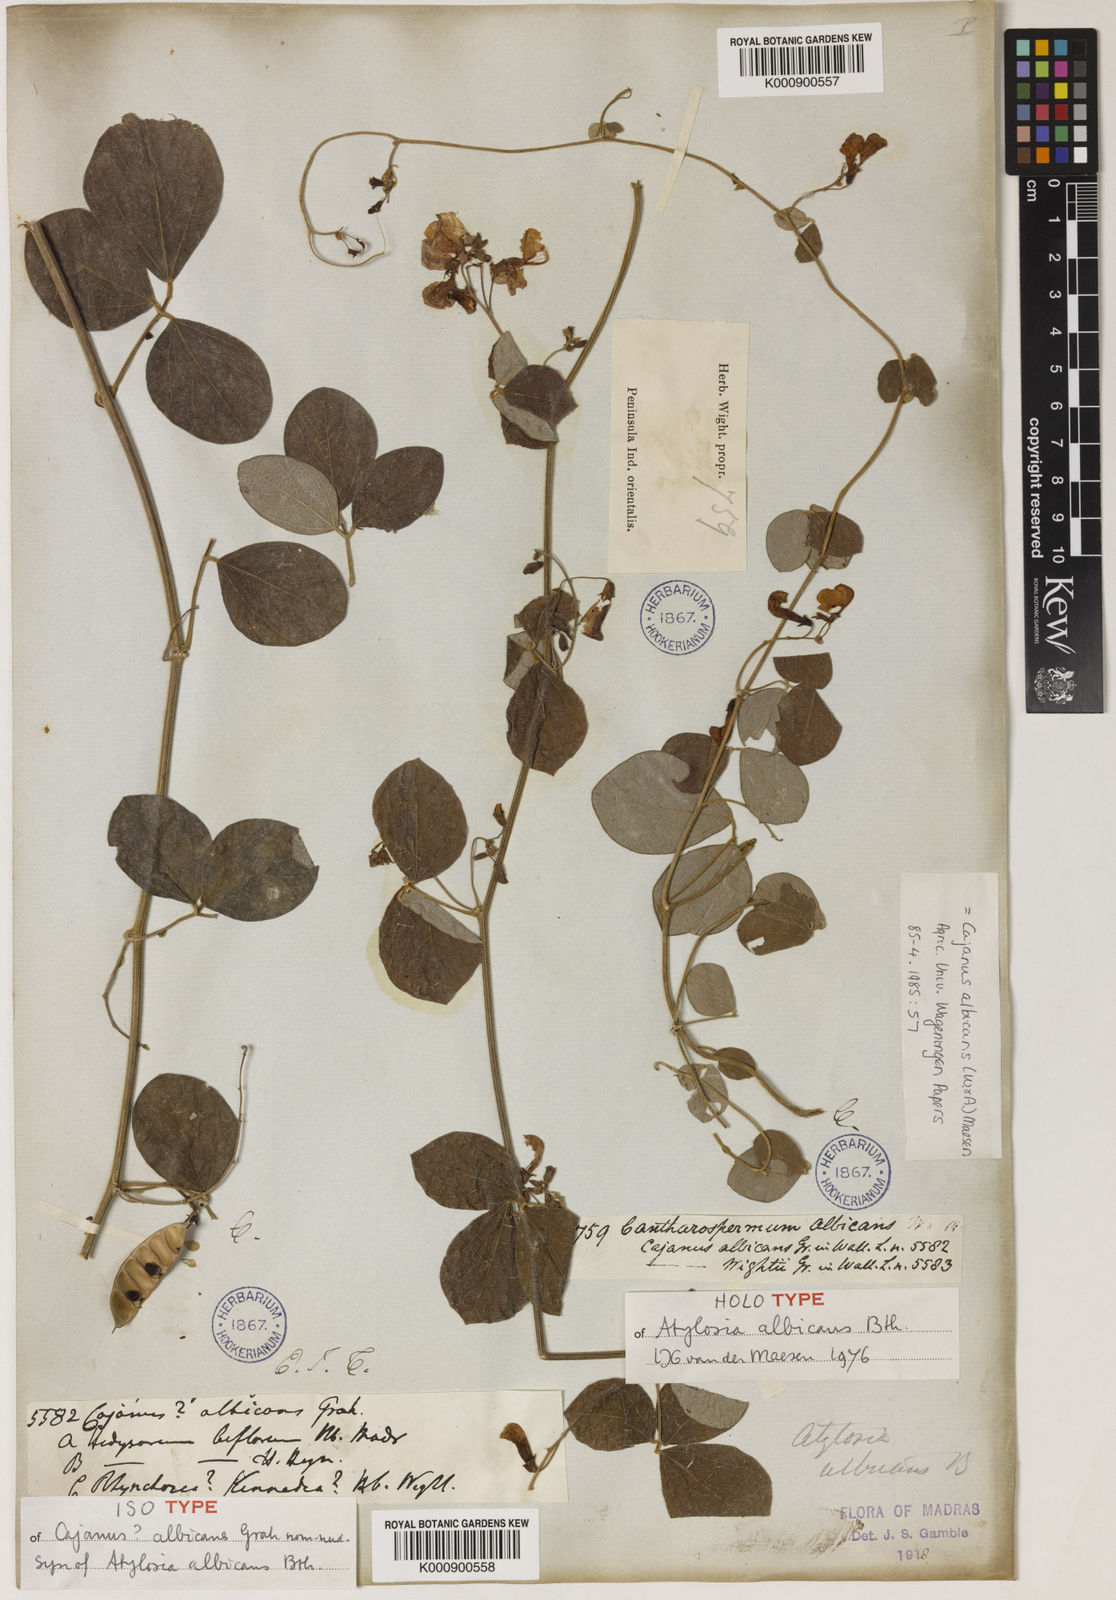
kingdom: Plantae
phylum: Tracheophyta
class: Magnoliopsida
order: Fabales
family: Fabaceae
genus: Cajanus
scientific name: Cajanus albicans
